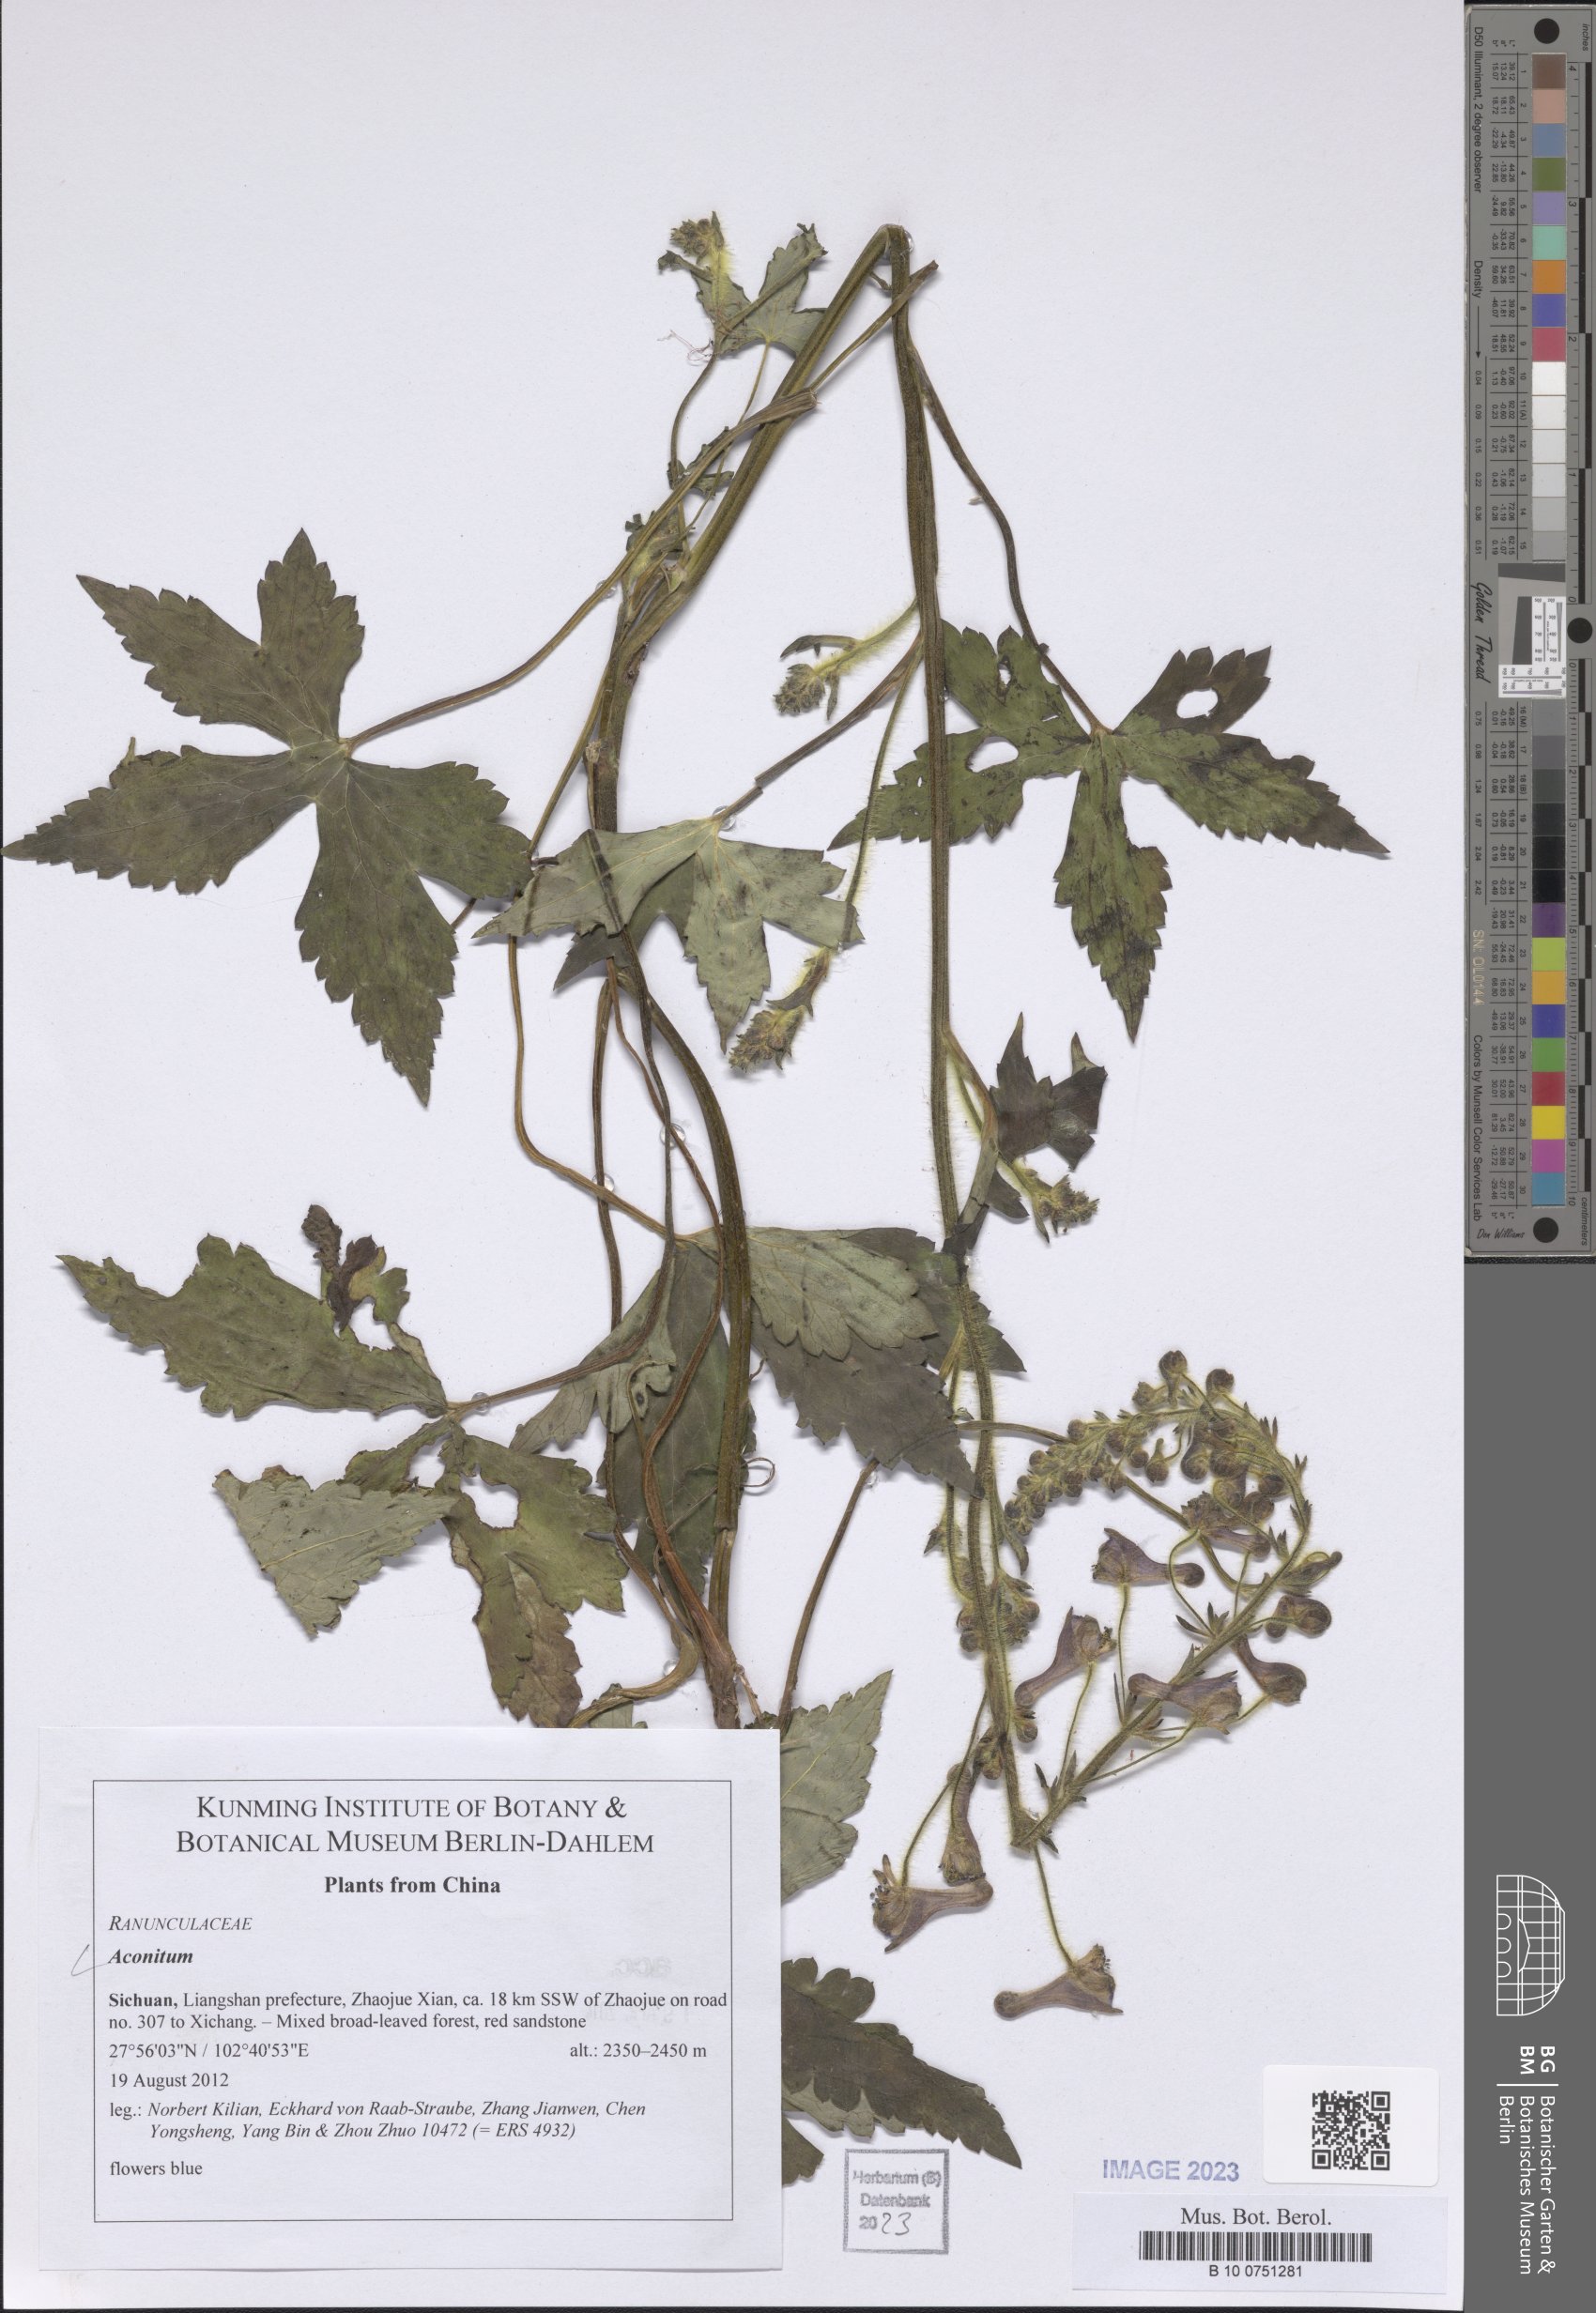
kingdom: Plantae
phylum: Tracheophyta
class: Magnoliopsida
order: Ranunculales
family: Ranunculaceae
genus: Aconitum
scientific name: Aconitum
